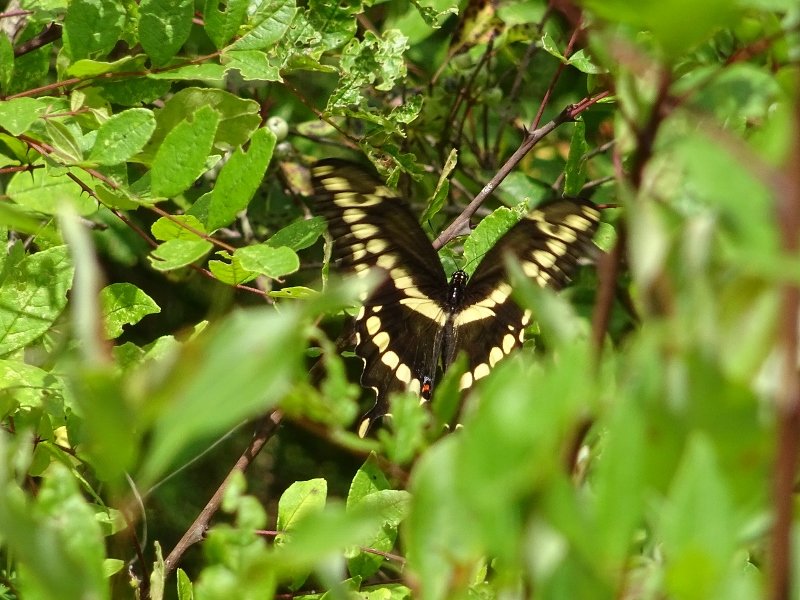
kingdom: Animalia
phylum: Arthropoda
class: Insecta
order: Lepidoptera
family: Papilionidae
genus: Papilio
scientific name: Papilio cresphontes
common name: Eastern Giant Swallowtail
